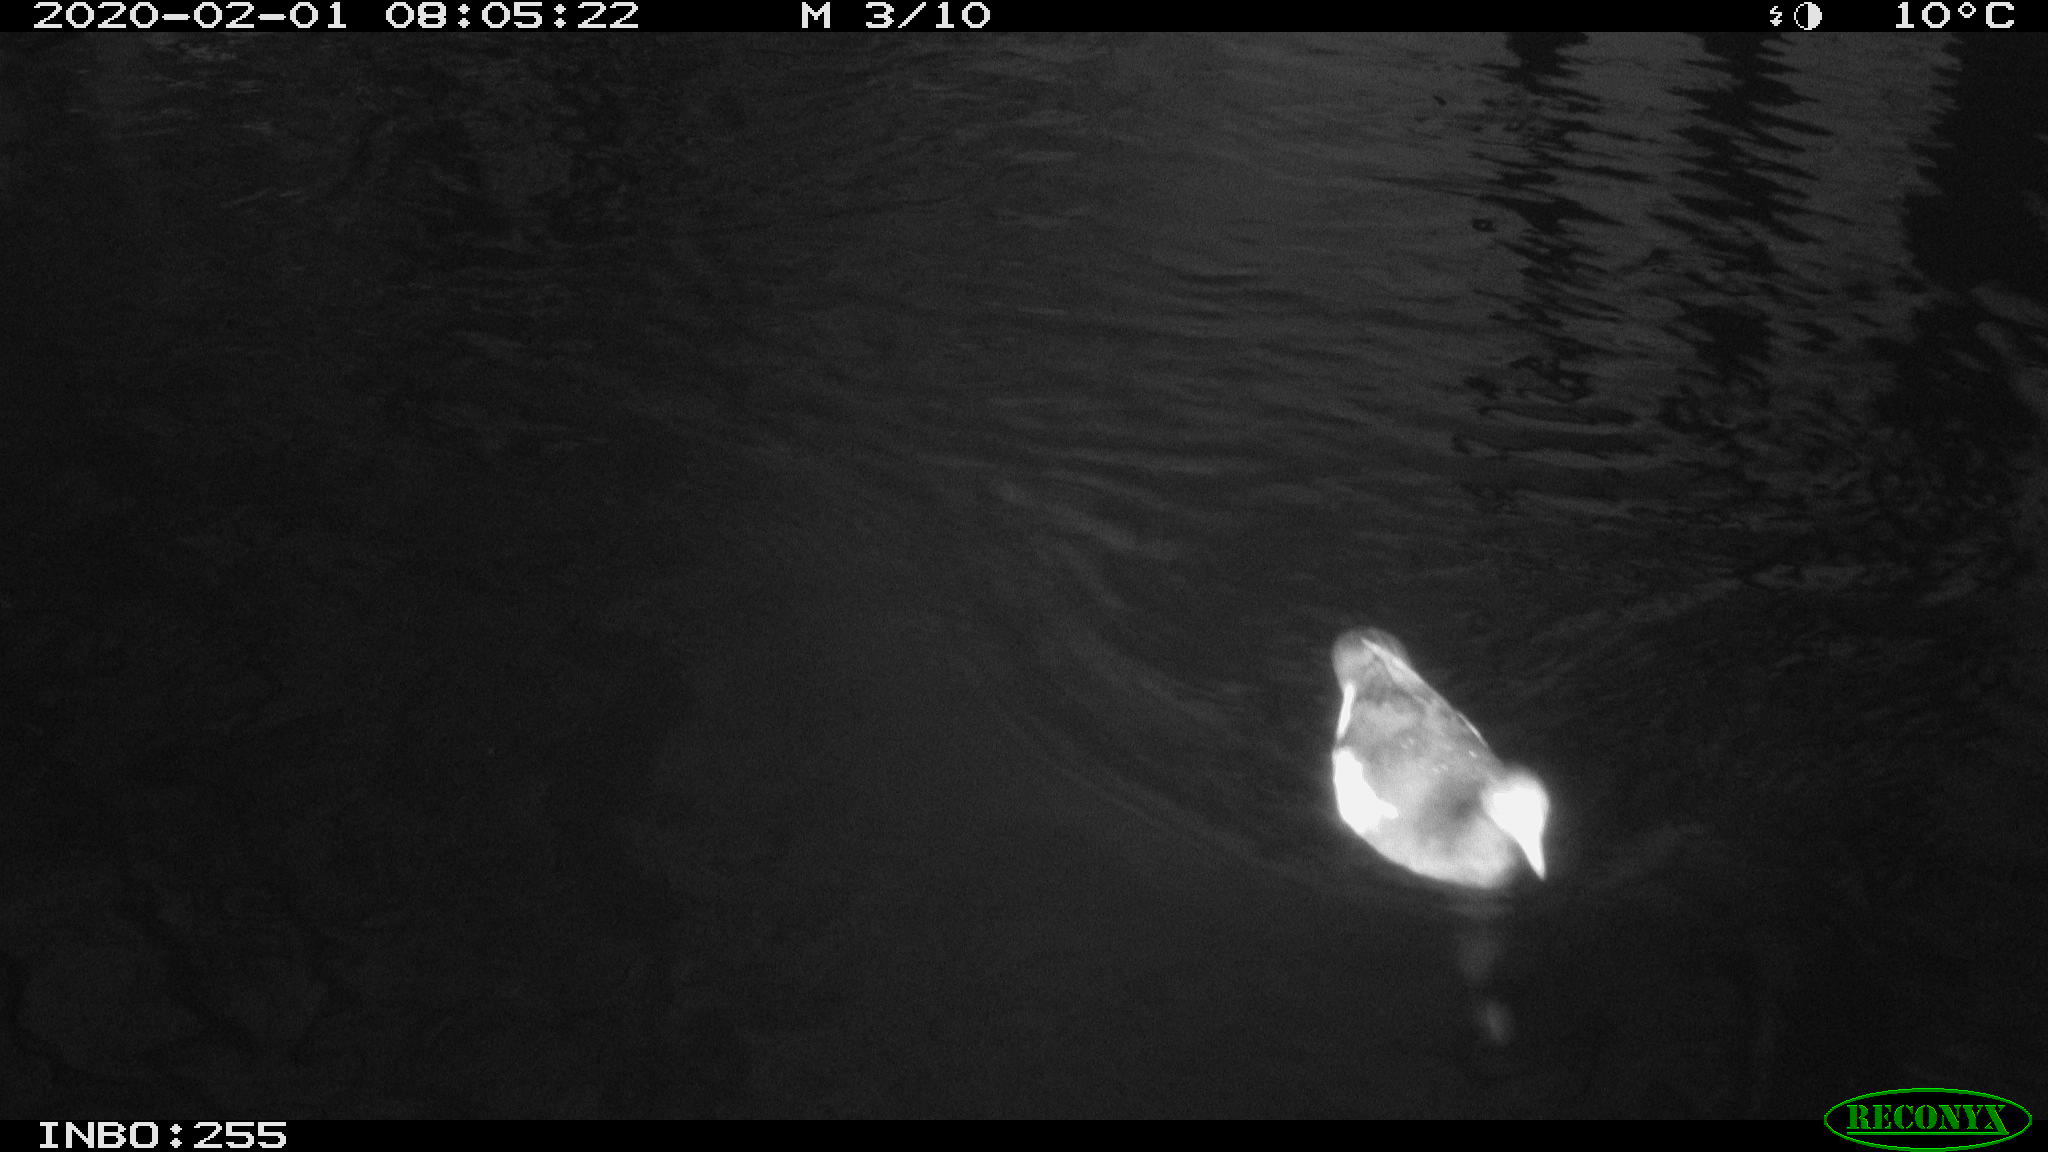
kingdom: Animalia
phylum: Chordata
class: Aves
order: Gruiformes
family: Rallidae
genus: Gallinula
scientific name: Gallinula chloropus
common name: Common moorhen
